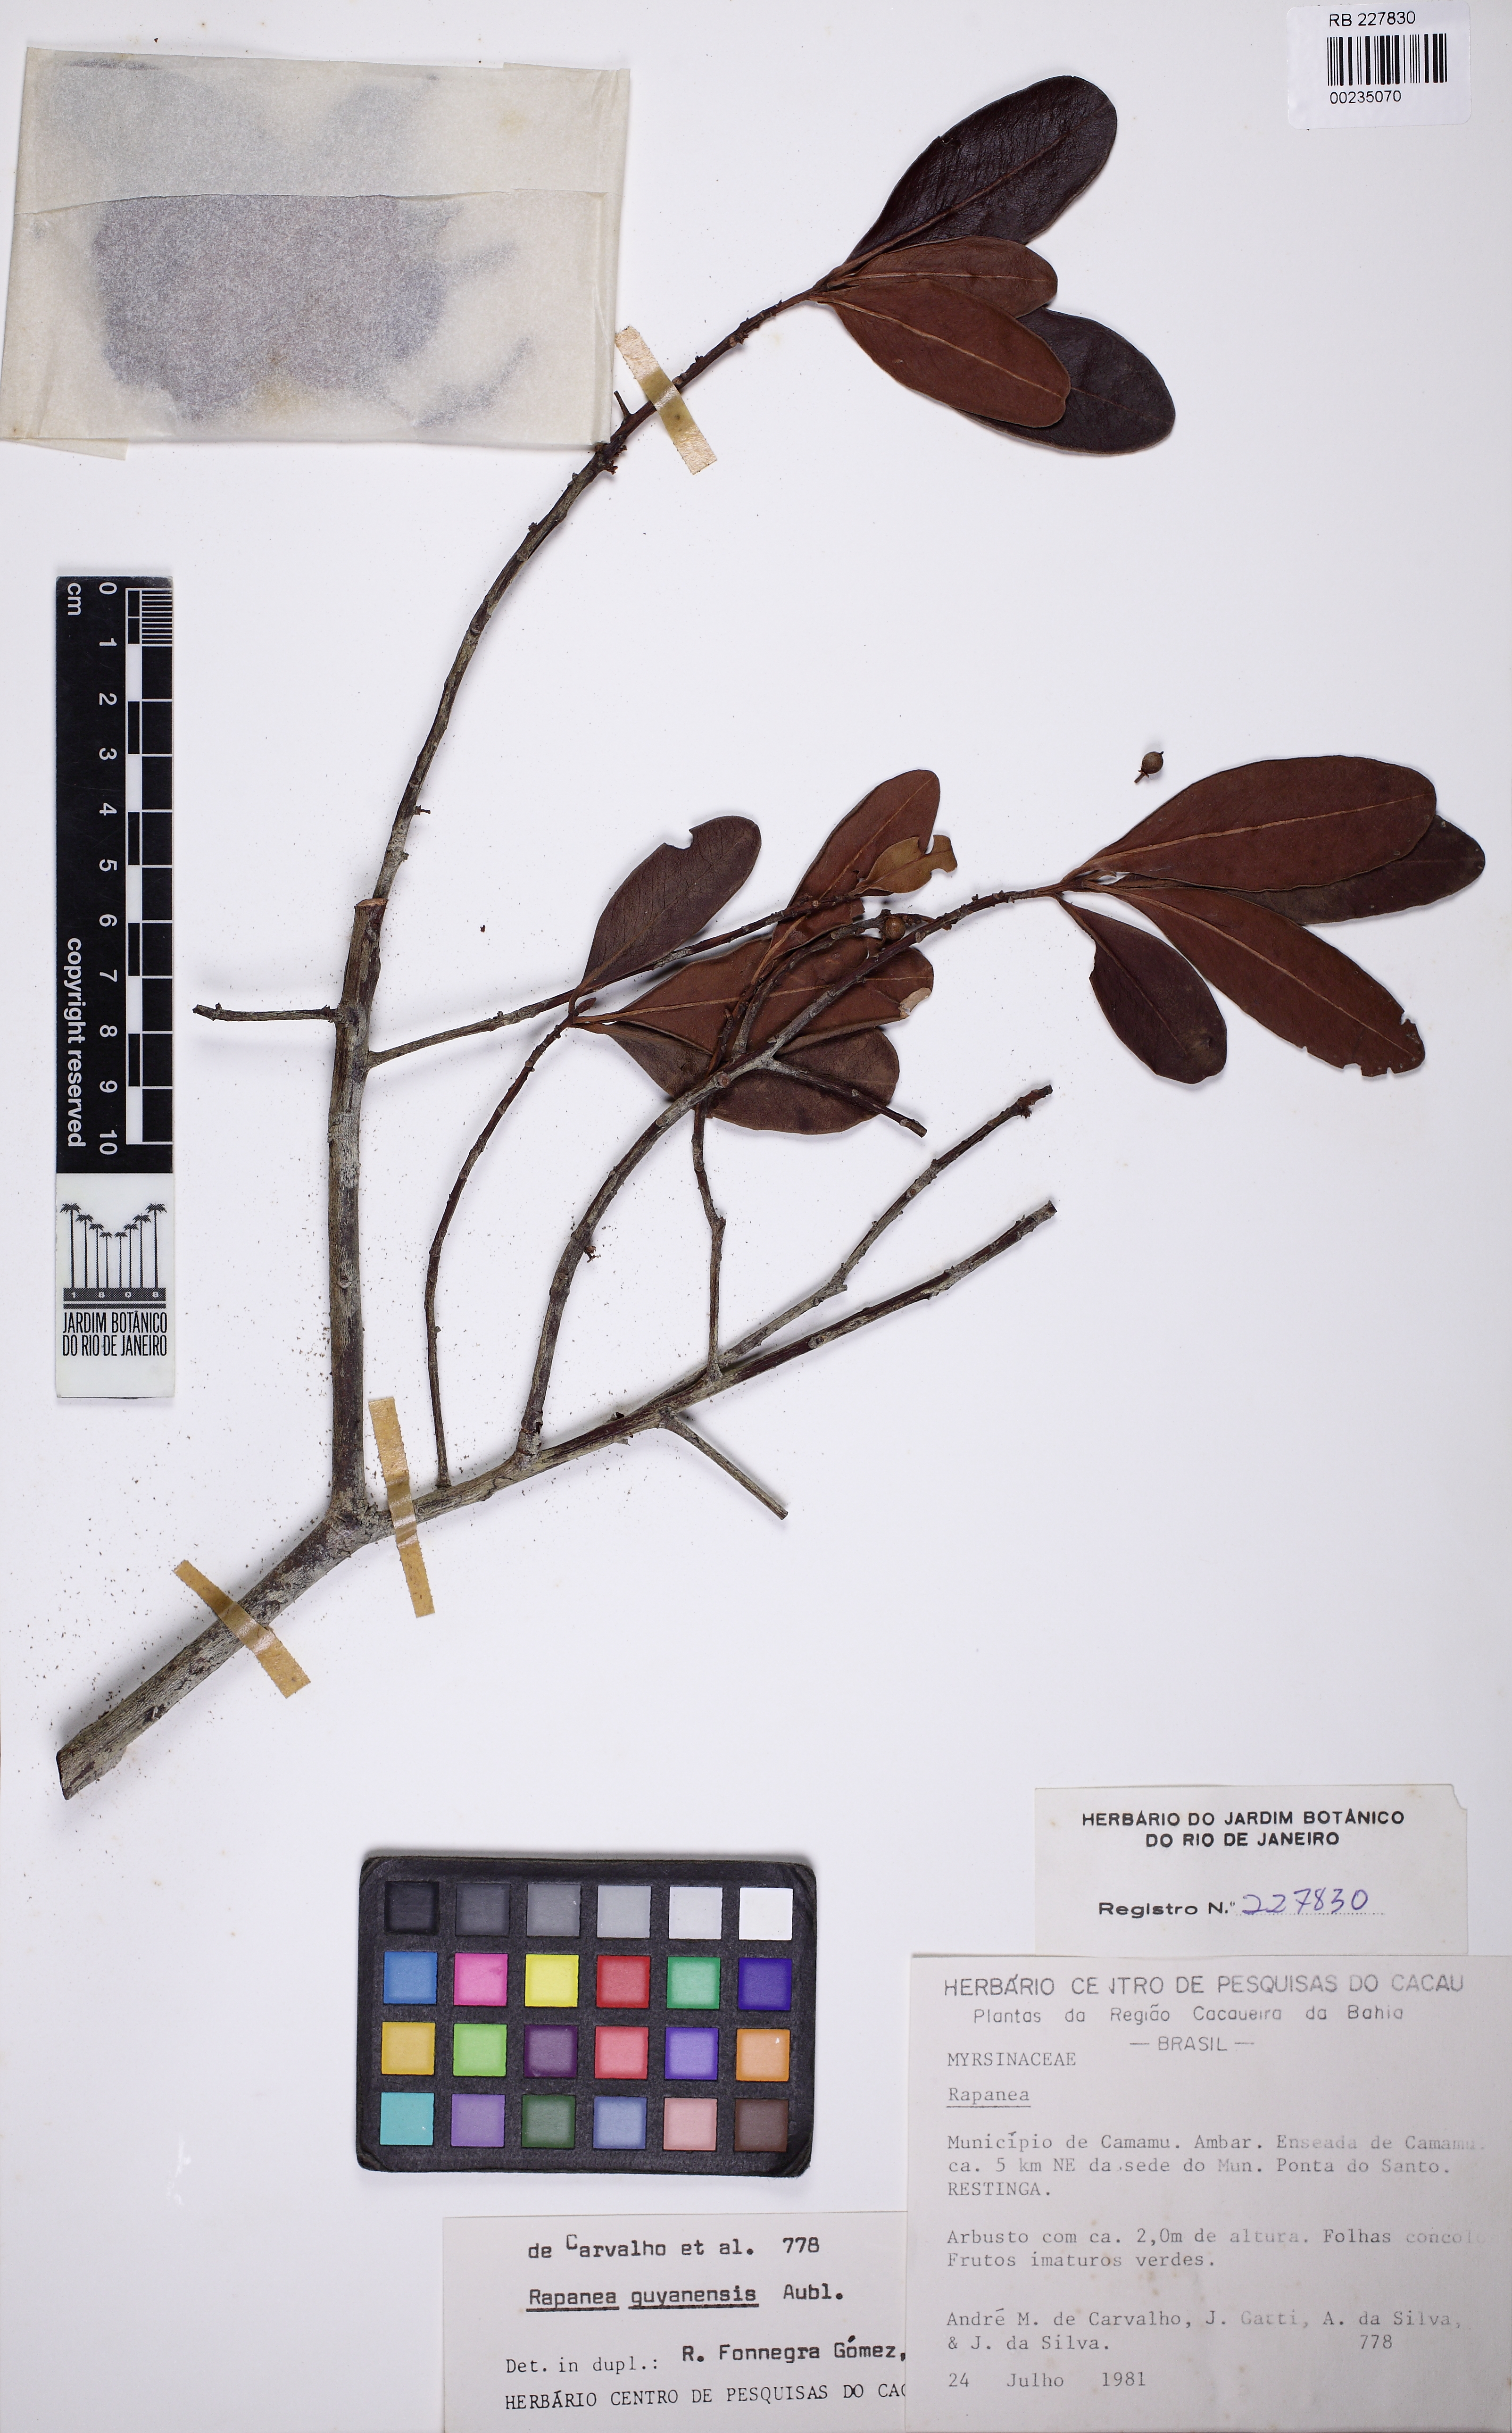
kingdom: Plantae
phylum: Tracheophyta
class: Magnoliopsida
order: Ericales
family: Primulaceae
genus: Myrsine
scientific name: Myrsine guianensis
